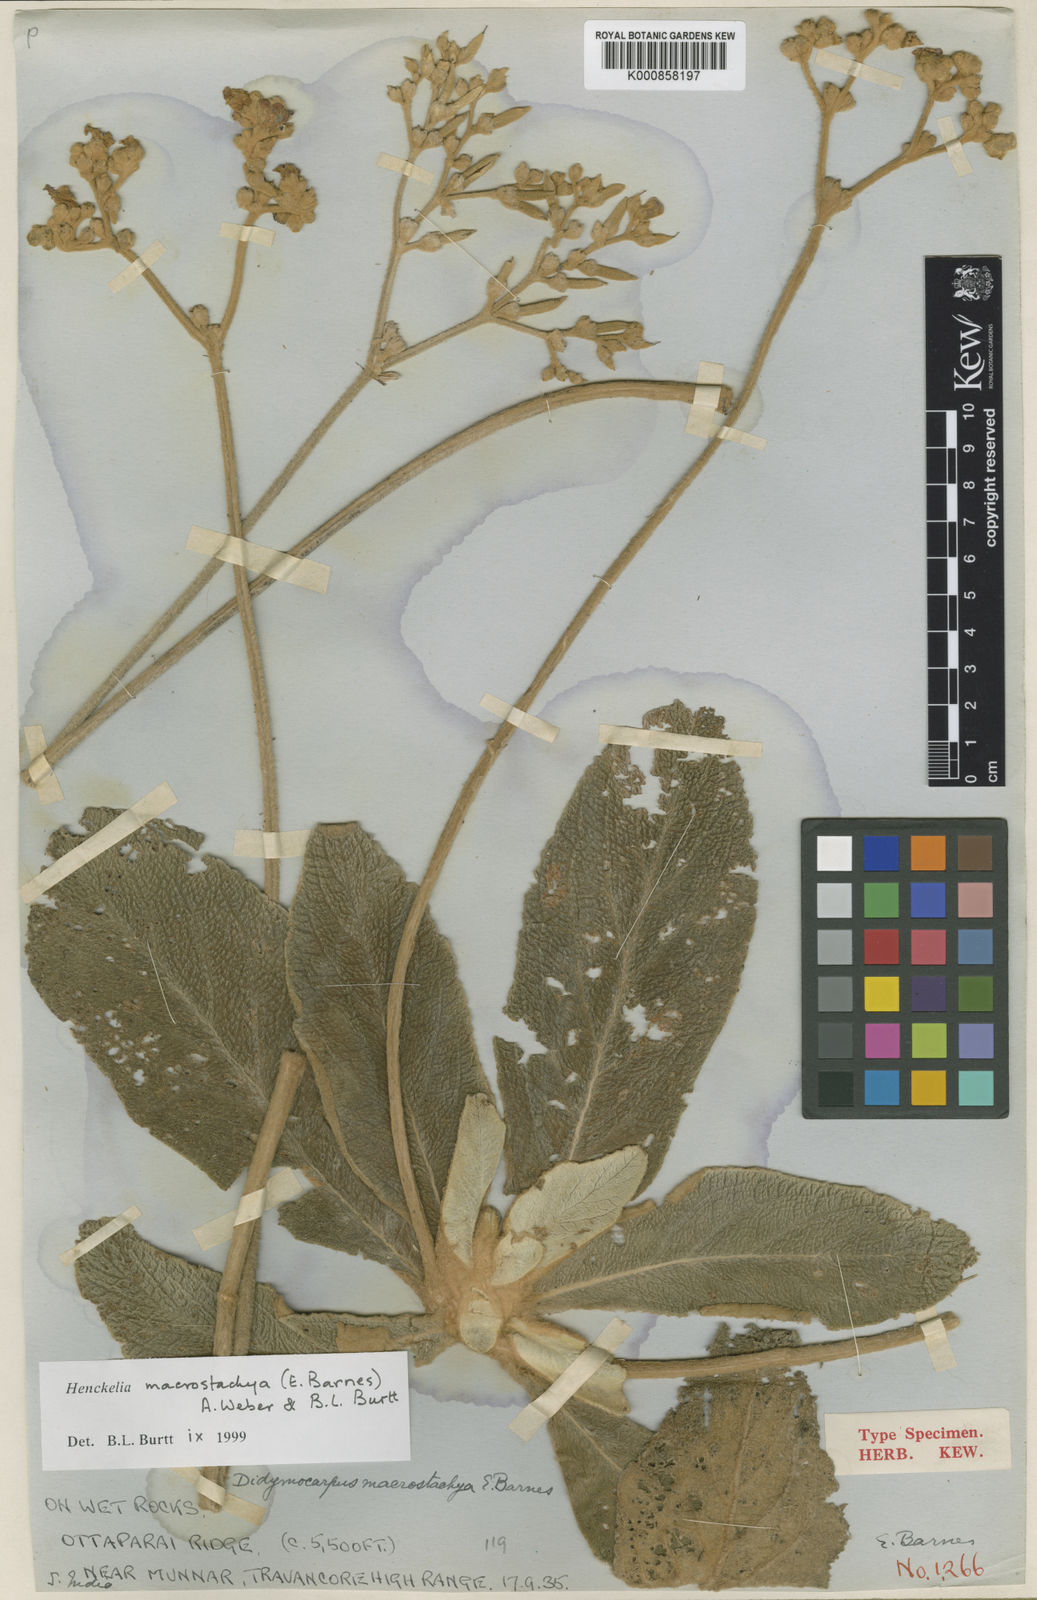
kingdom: Plantae
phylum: Tracheophyta
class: Magnoliopsida
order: Lamiales
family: Gesneriaceae
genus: Henckelia
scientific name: Henckelia macrostachya
